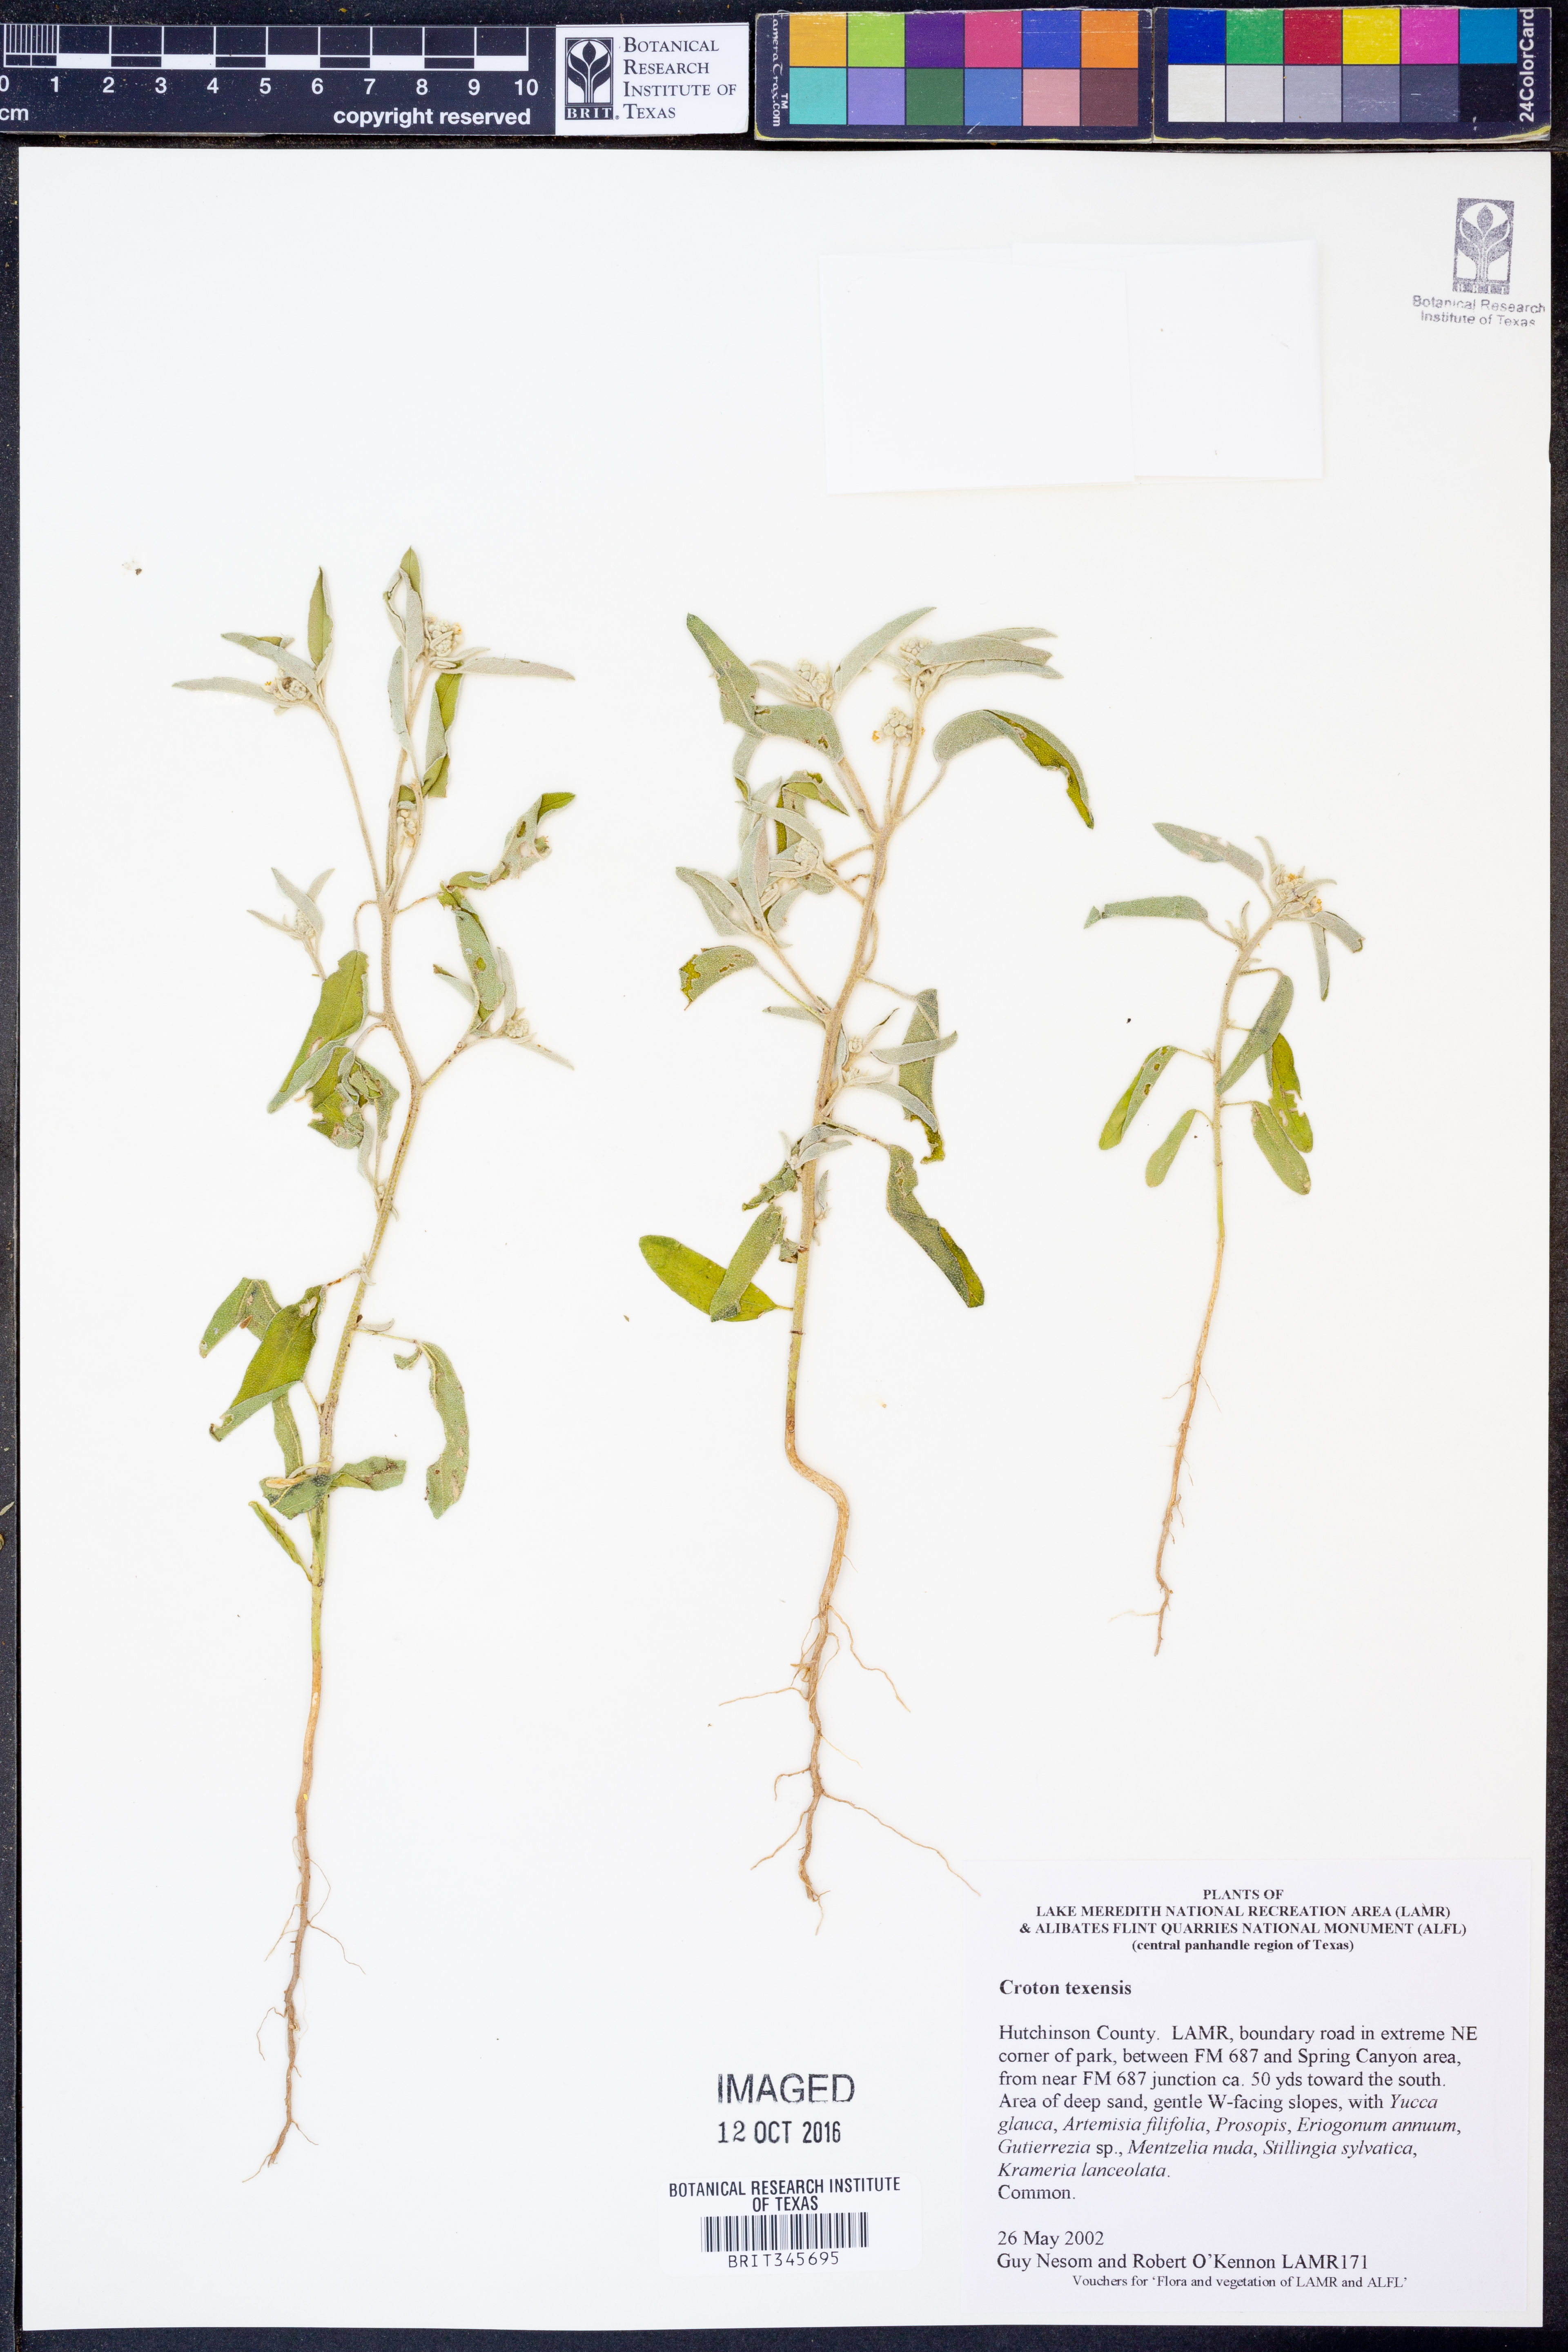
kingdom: Plantae
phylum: Tracheophyta
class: Magnoliopsida
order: Malpighiales
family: Euphorbiaceae
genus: Croton
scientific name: Croton texensis
